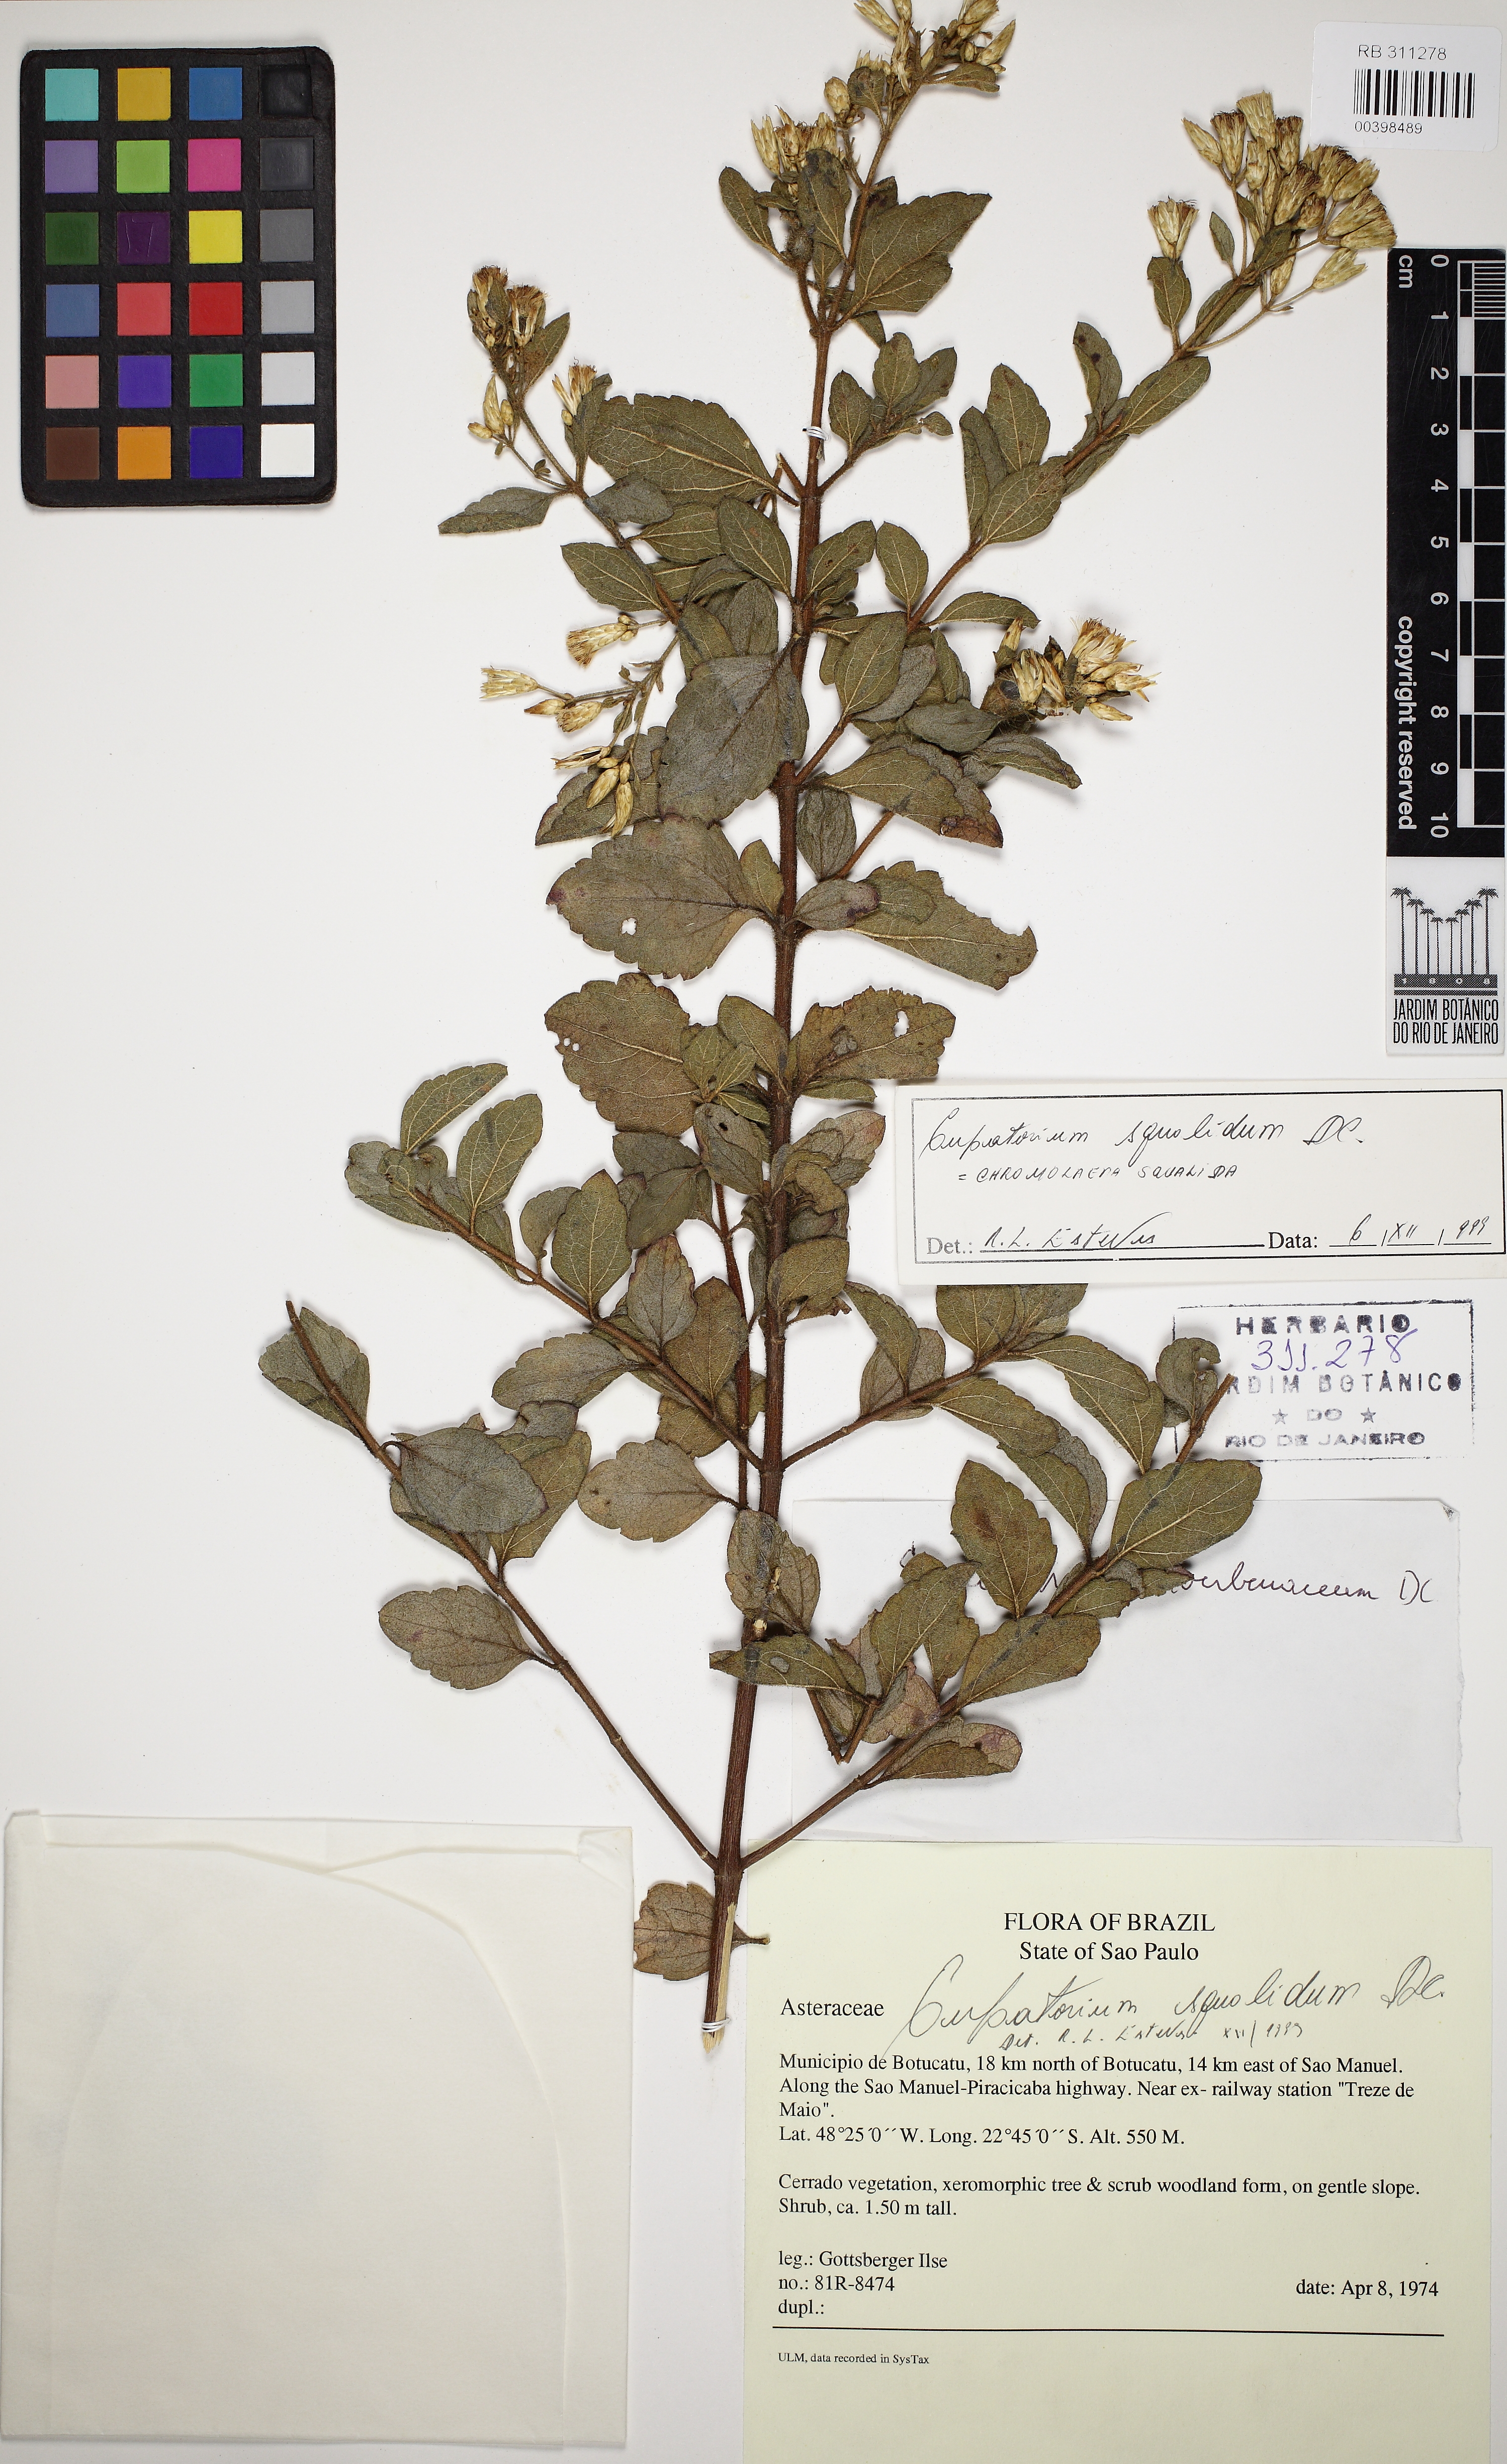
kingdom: Plantae
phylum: Tracheophyta
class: Magnoliopsida
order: Asterales
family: Asteraceae
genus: Chromolaena
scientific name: Chromolaena squalida
